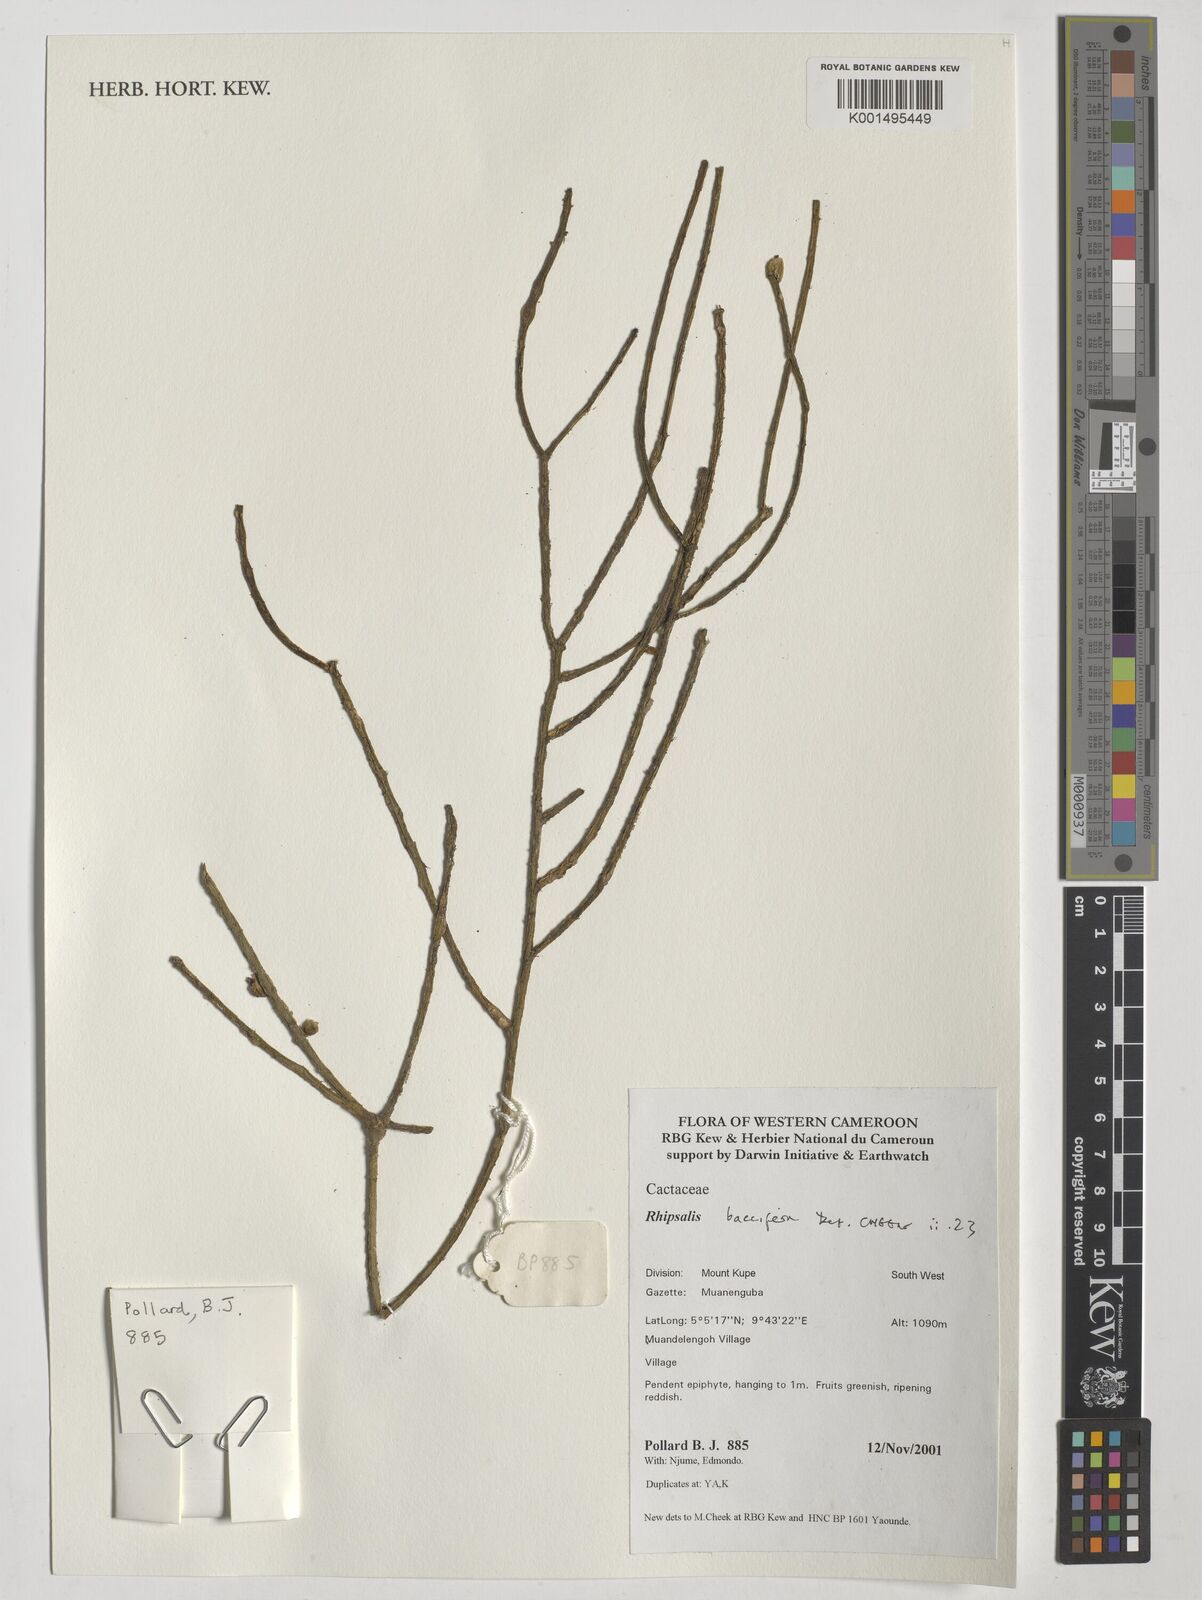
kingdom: Plantae
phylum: Tracheophyta
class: Magnoliopsida
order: Caryophyllales
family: Cactaceae
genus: Rhipsalis
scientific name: Rhipsalis baccifera
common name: Mistletoe cactus
